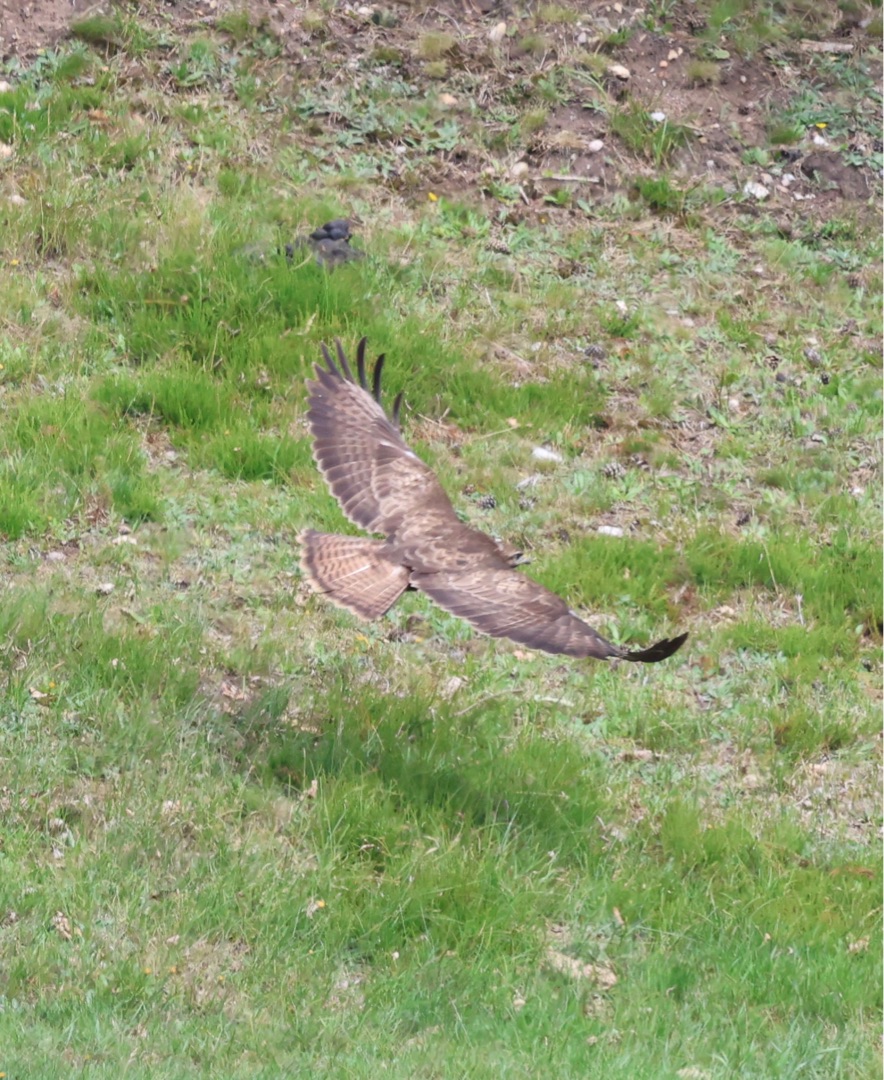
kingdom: Animalia
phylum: Chordata
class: Aves
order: Accipitriformes
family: Accipitridae
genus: Buteo
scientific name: Buteo buteo
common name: Musvåge
